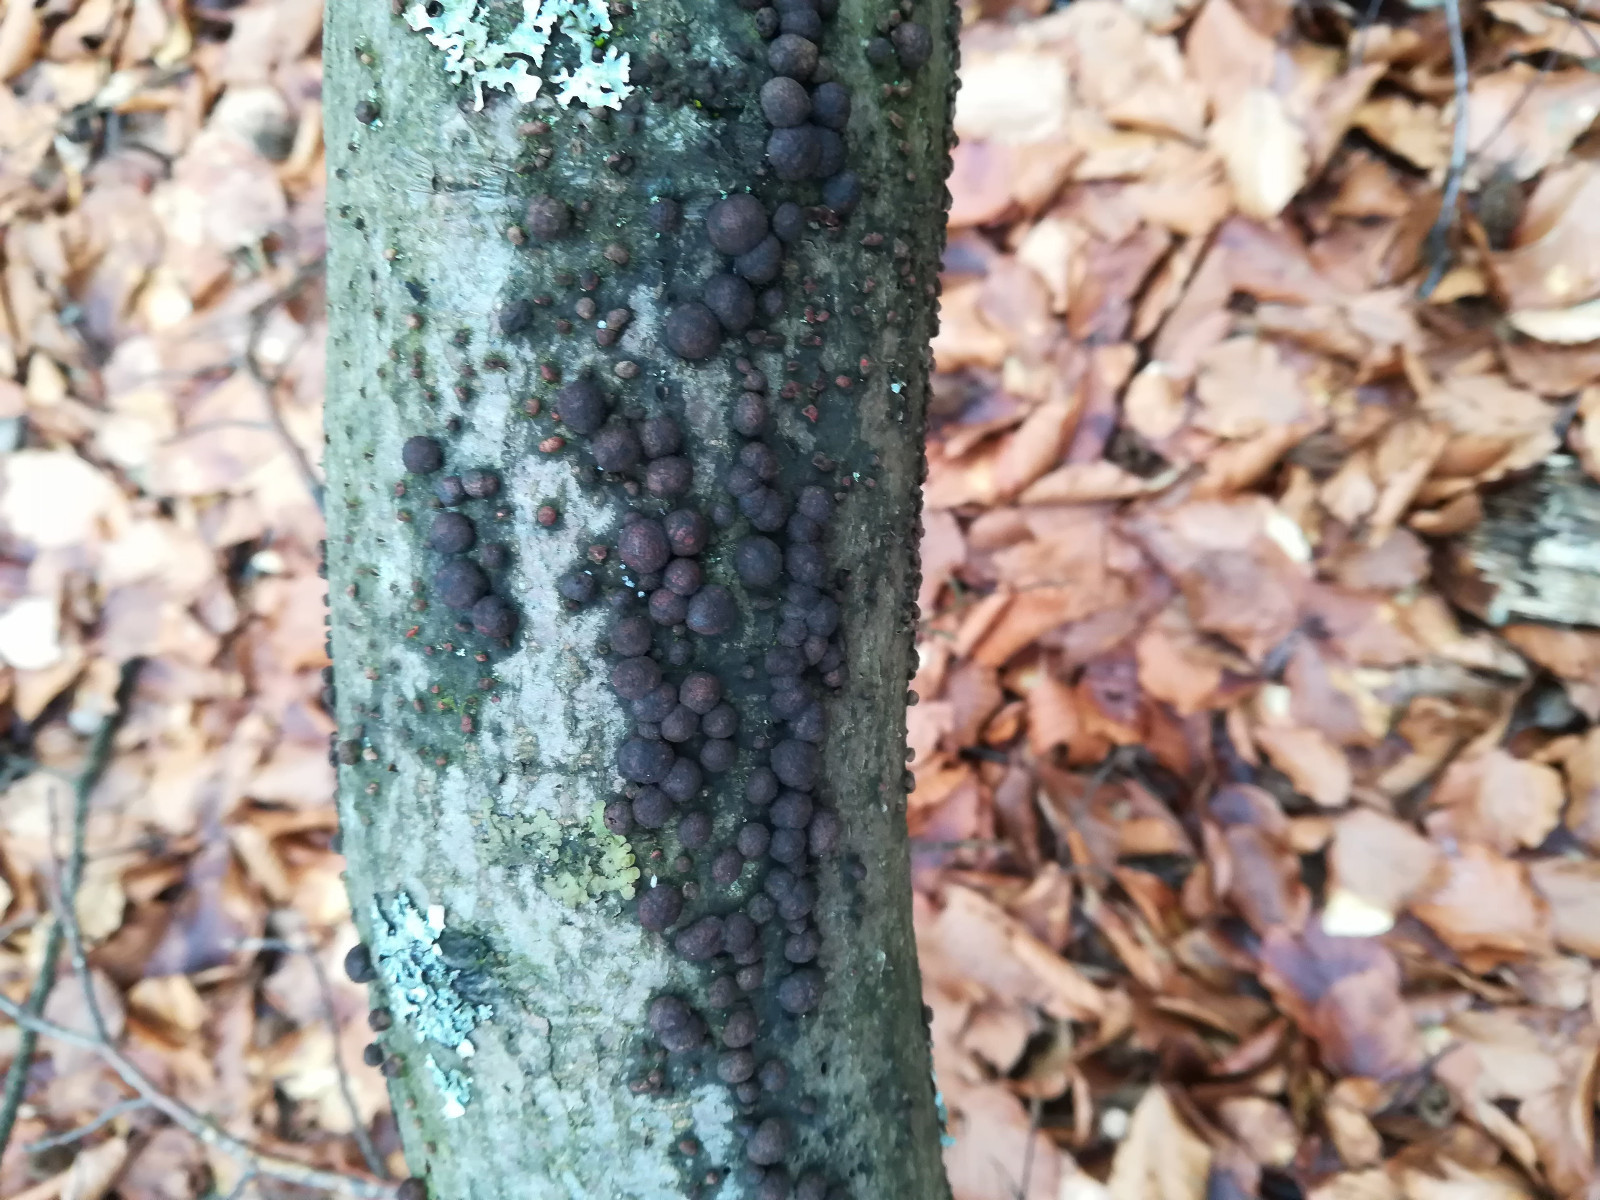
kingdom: Fungi
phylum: Ascomycota
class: Sordariomycetes
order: Xylariales
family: Hypoxylaceae
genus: Hypoxylon
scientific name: Hypoxylon fragiforme
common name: kuljordbær
